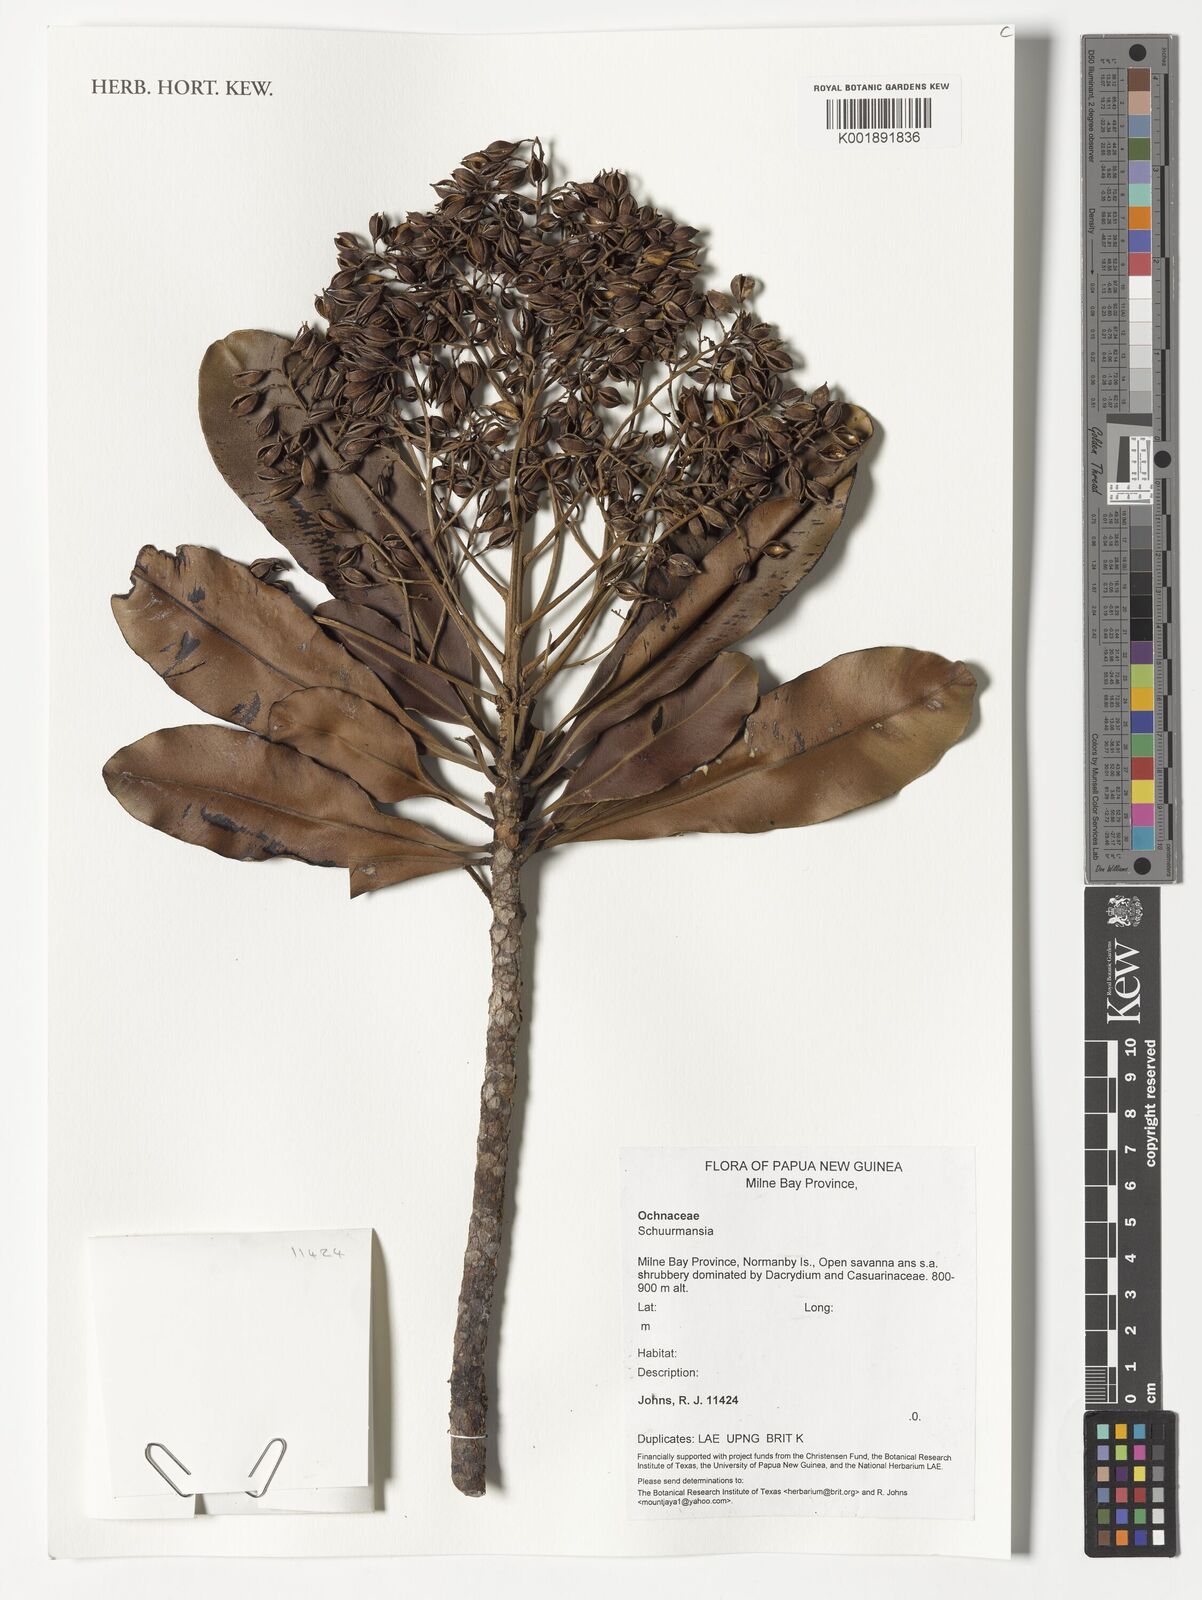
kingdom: Plantae
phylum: Tracheophyta
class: Magnoliopsida
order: Malpighiales
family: Ochnaceae
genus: Schuurmansia
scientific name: Schuurmansia
